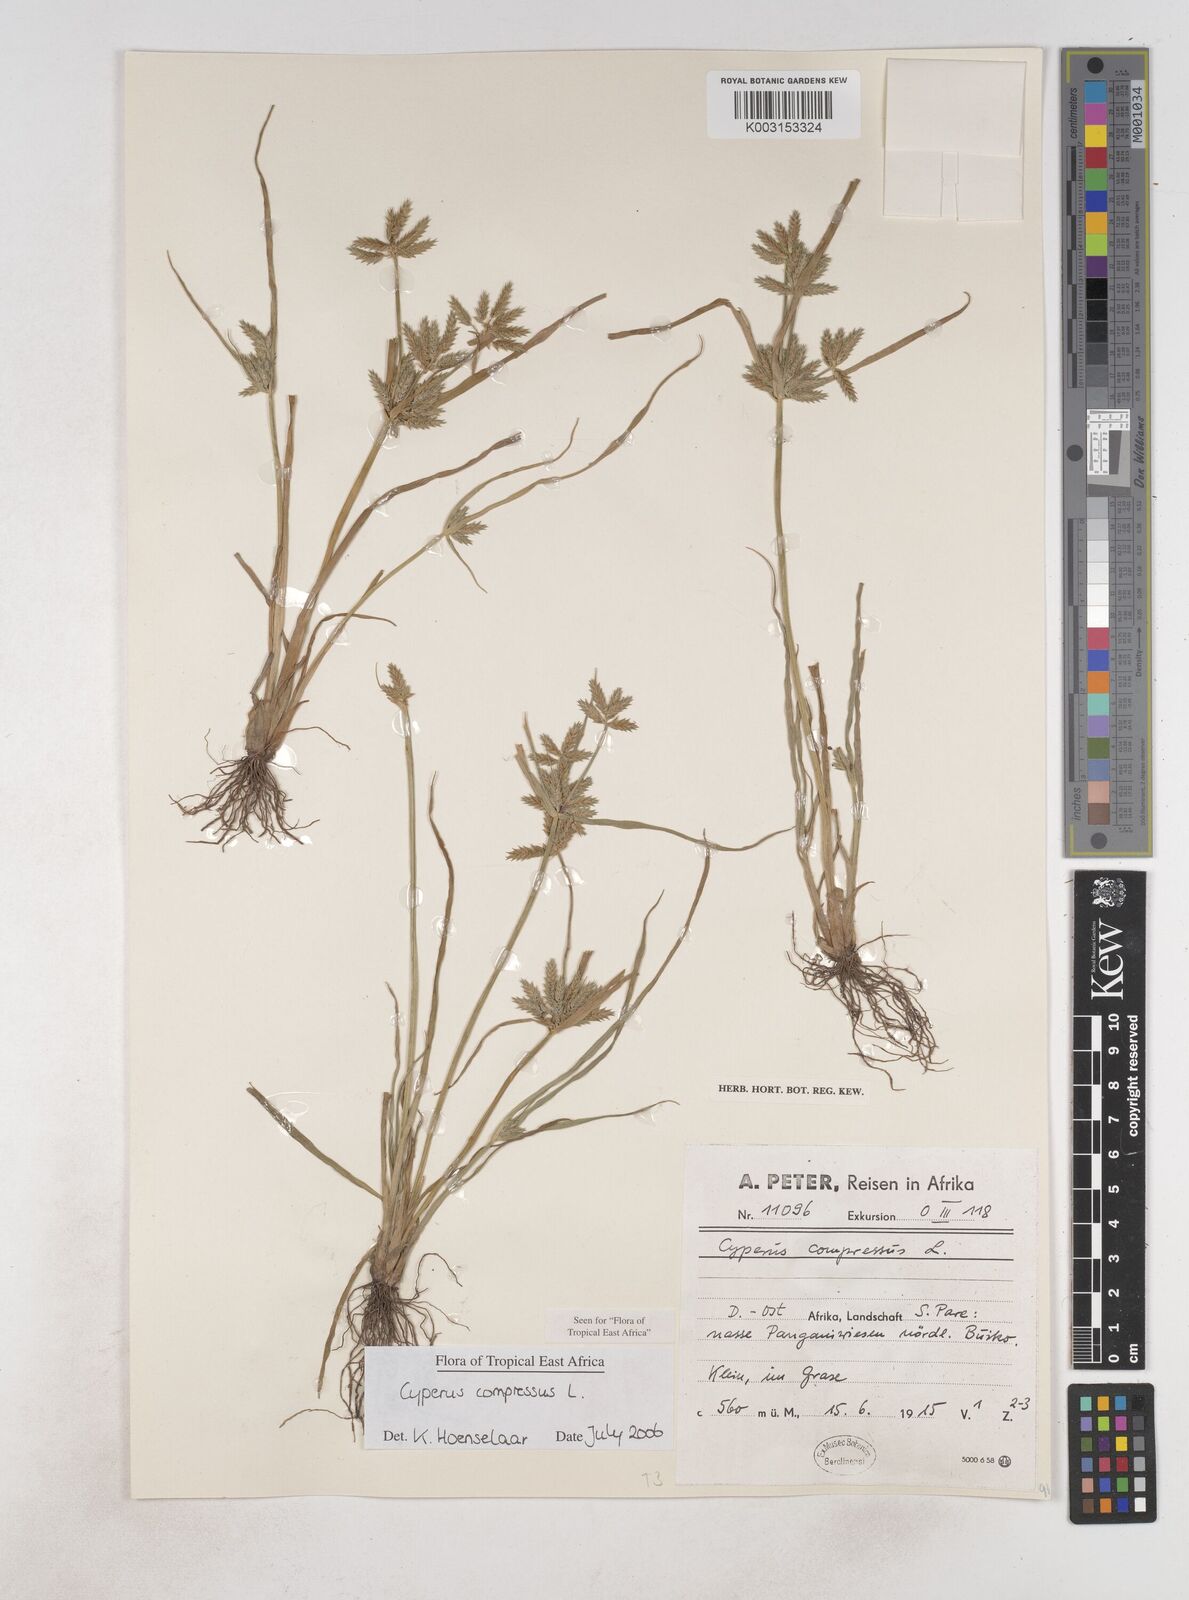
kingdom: Plantae
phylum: Tracheophyta
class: Liliopsida
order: Poales
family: Cyperaceae
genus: Cyperus
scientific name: Cyperus compressus
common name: Poorland flatsedge
